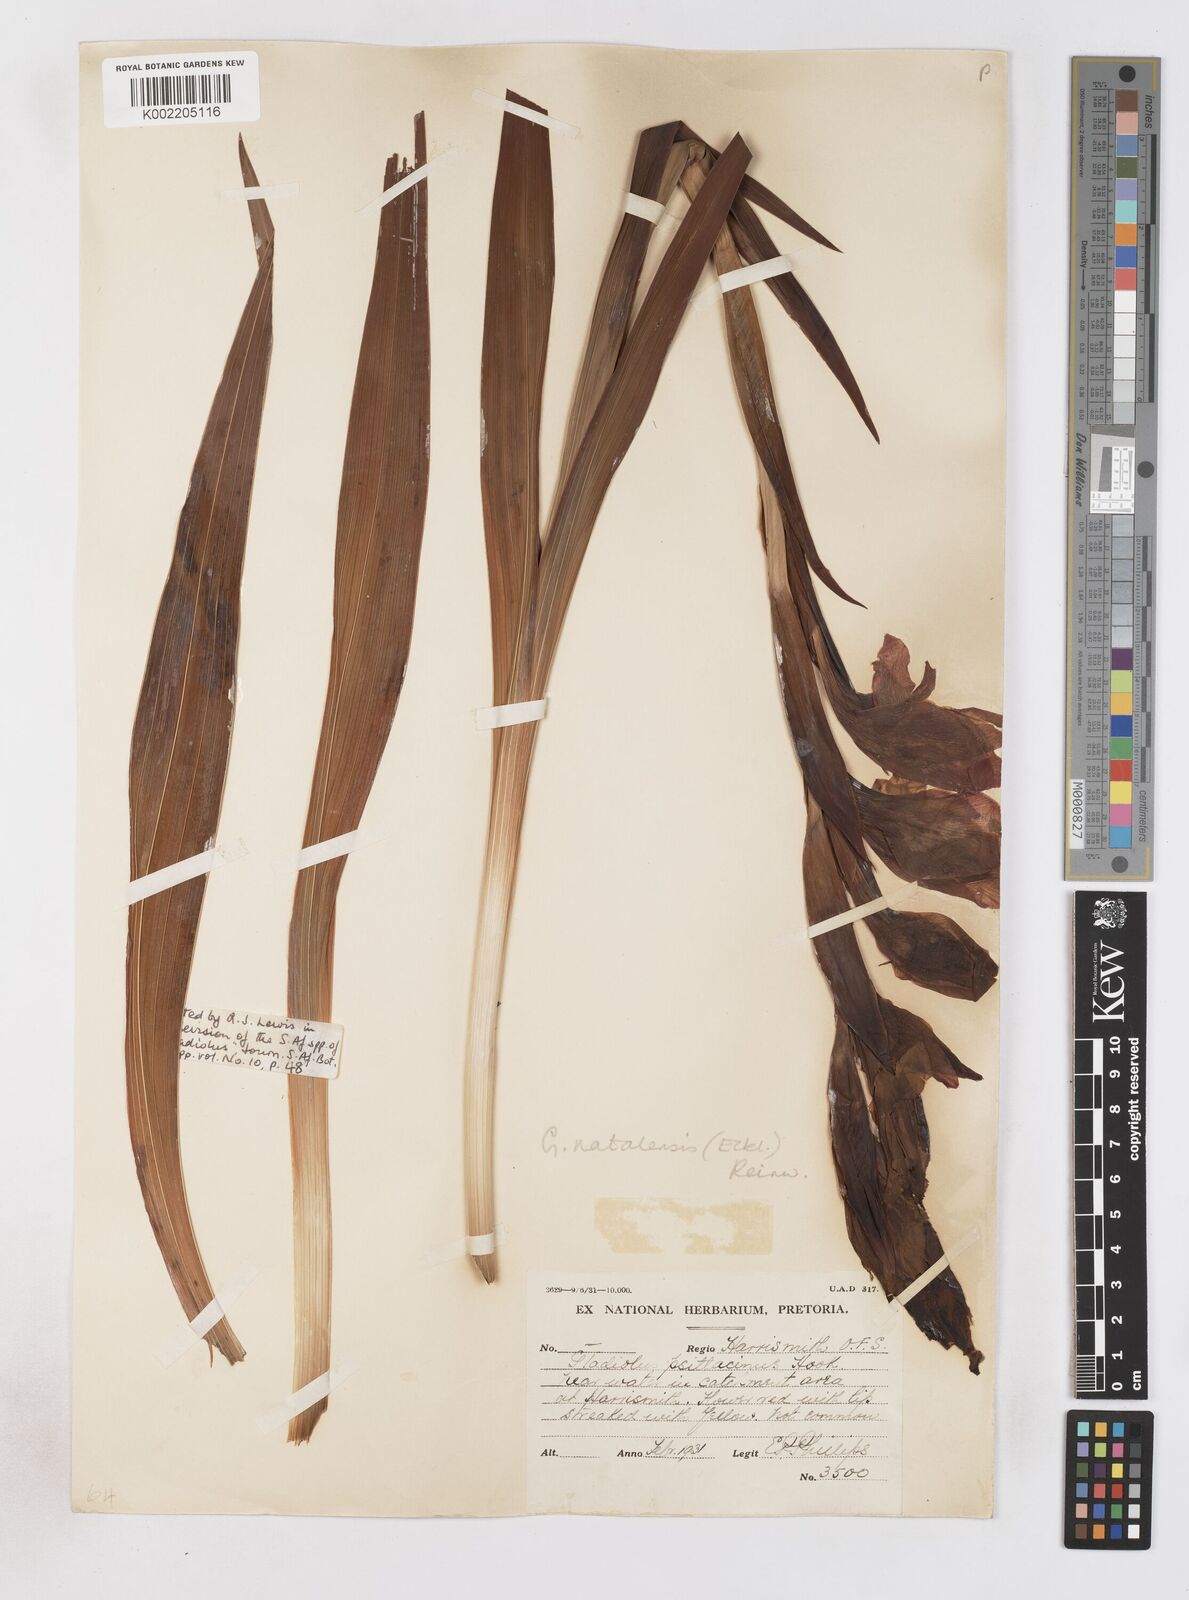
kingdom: Plantae
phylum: Tracheophyta
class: Liliopsida
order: Asparagales
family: Iridaceae
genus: Gladiolus
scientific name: Gladiolus dalenii
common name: Cornflag
